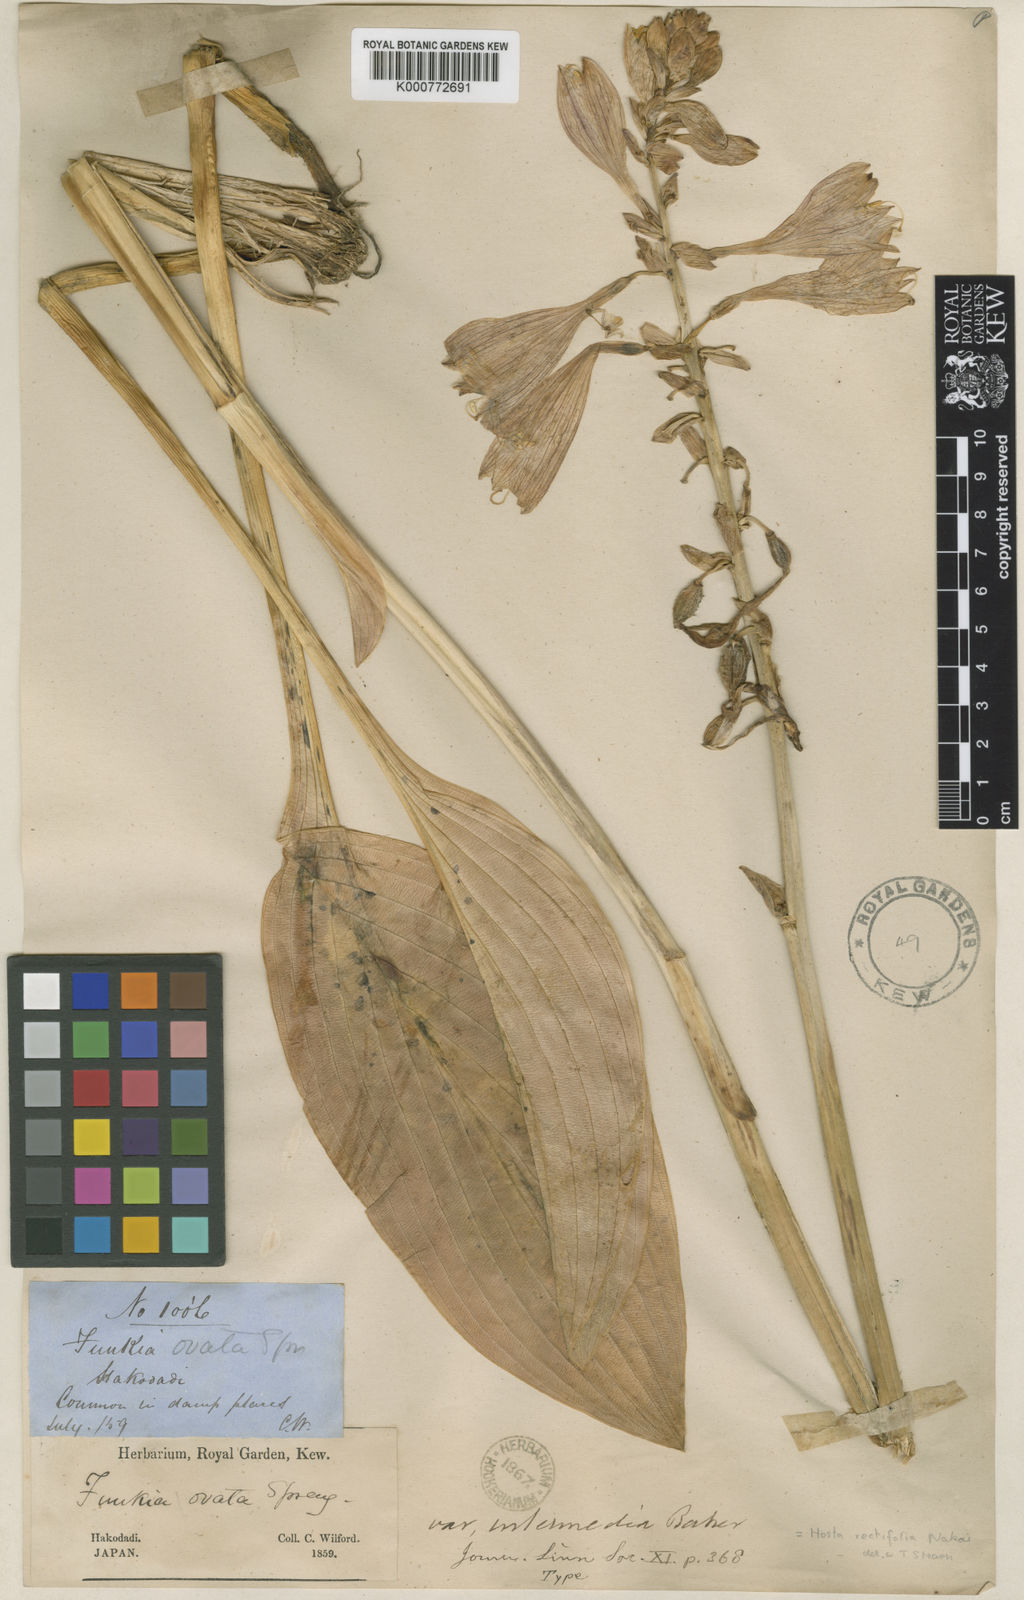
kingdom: Plantae
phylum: Tracheophyta
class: Liliopsida
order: Asparagales
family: Asparagaceae
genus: Hosta
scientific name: Hosta sieboldii
